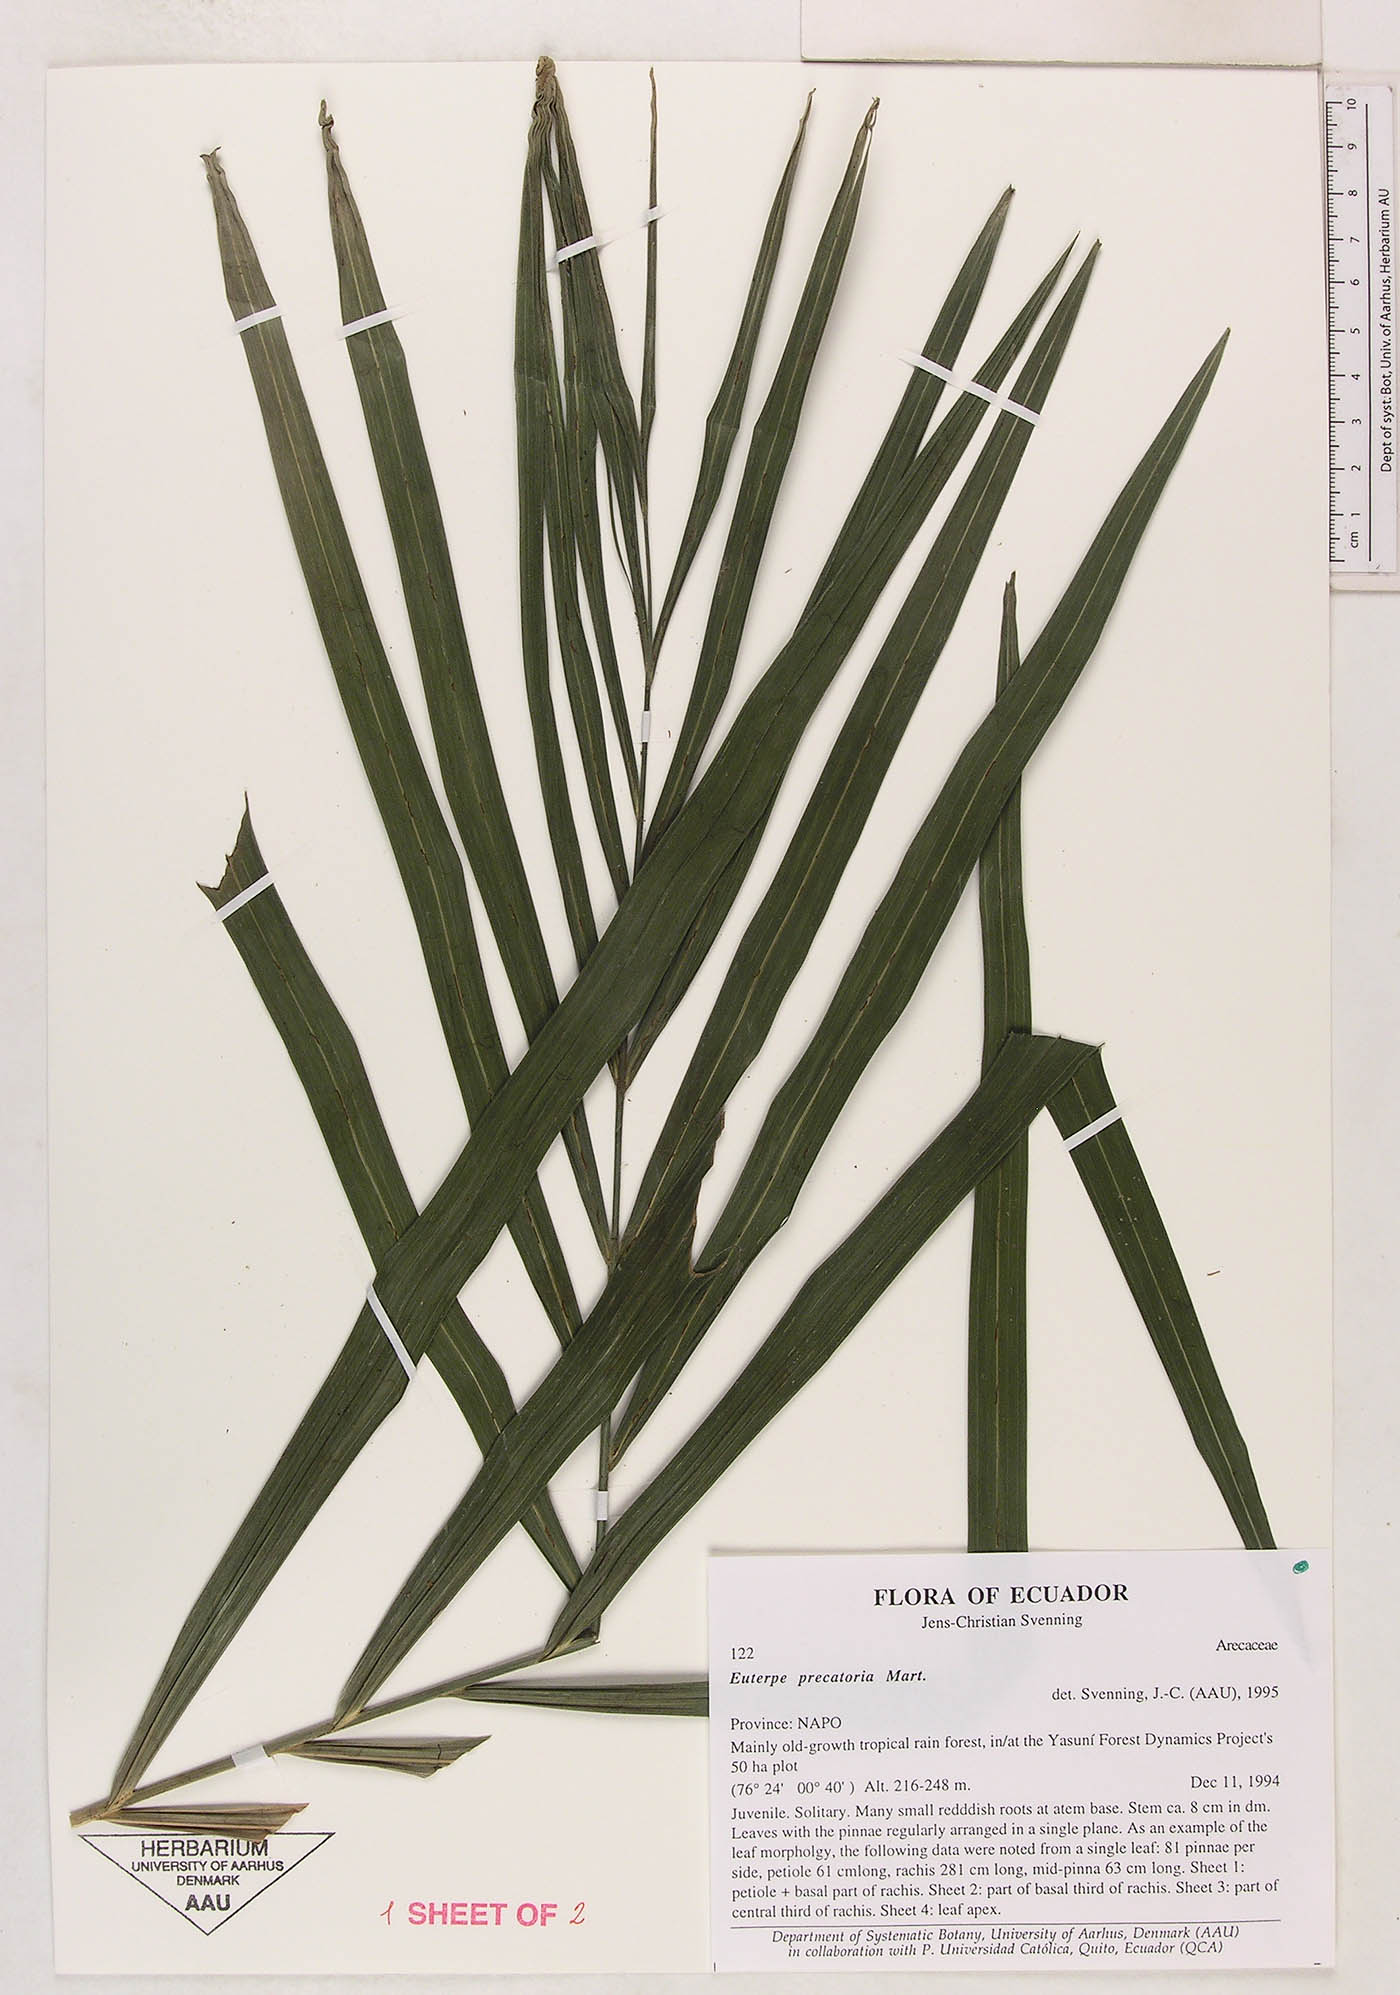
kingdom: Plantae
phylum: Tracheophyta
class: Liliopsida
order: Arecales
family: Arecaceae
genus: Euterpe
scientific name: Euterpe precatoria
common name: Mountain-cabbage
